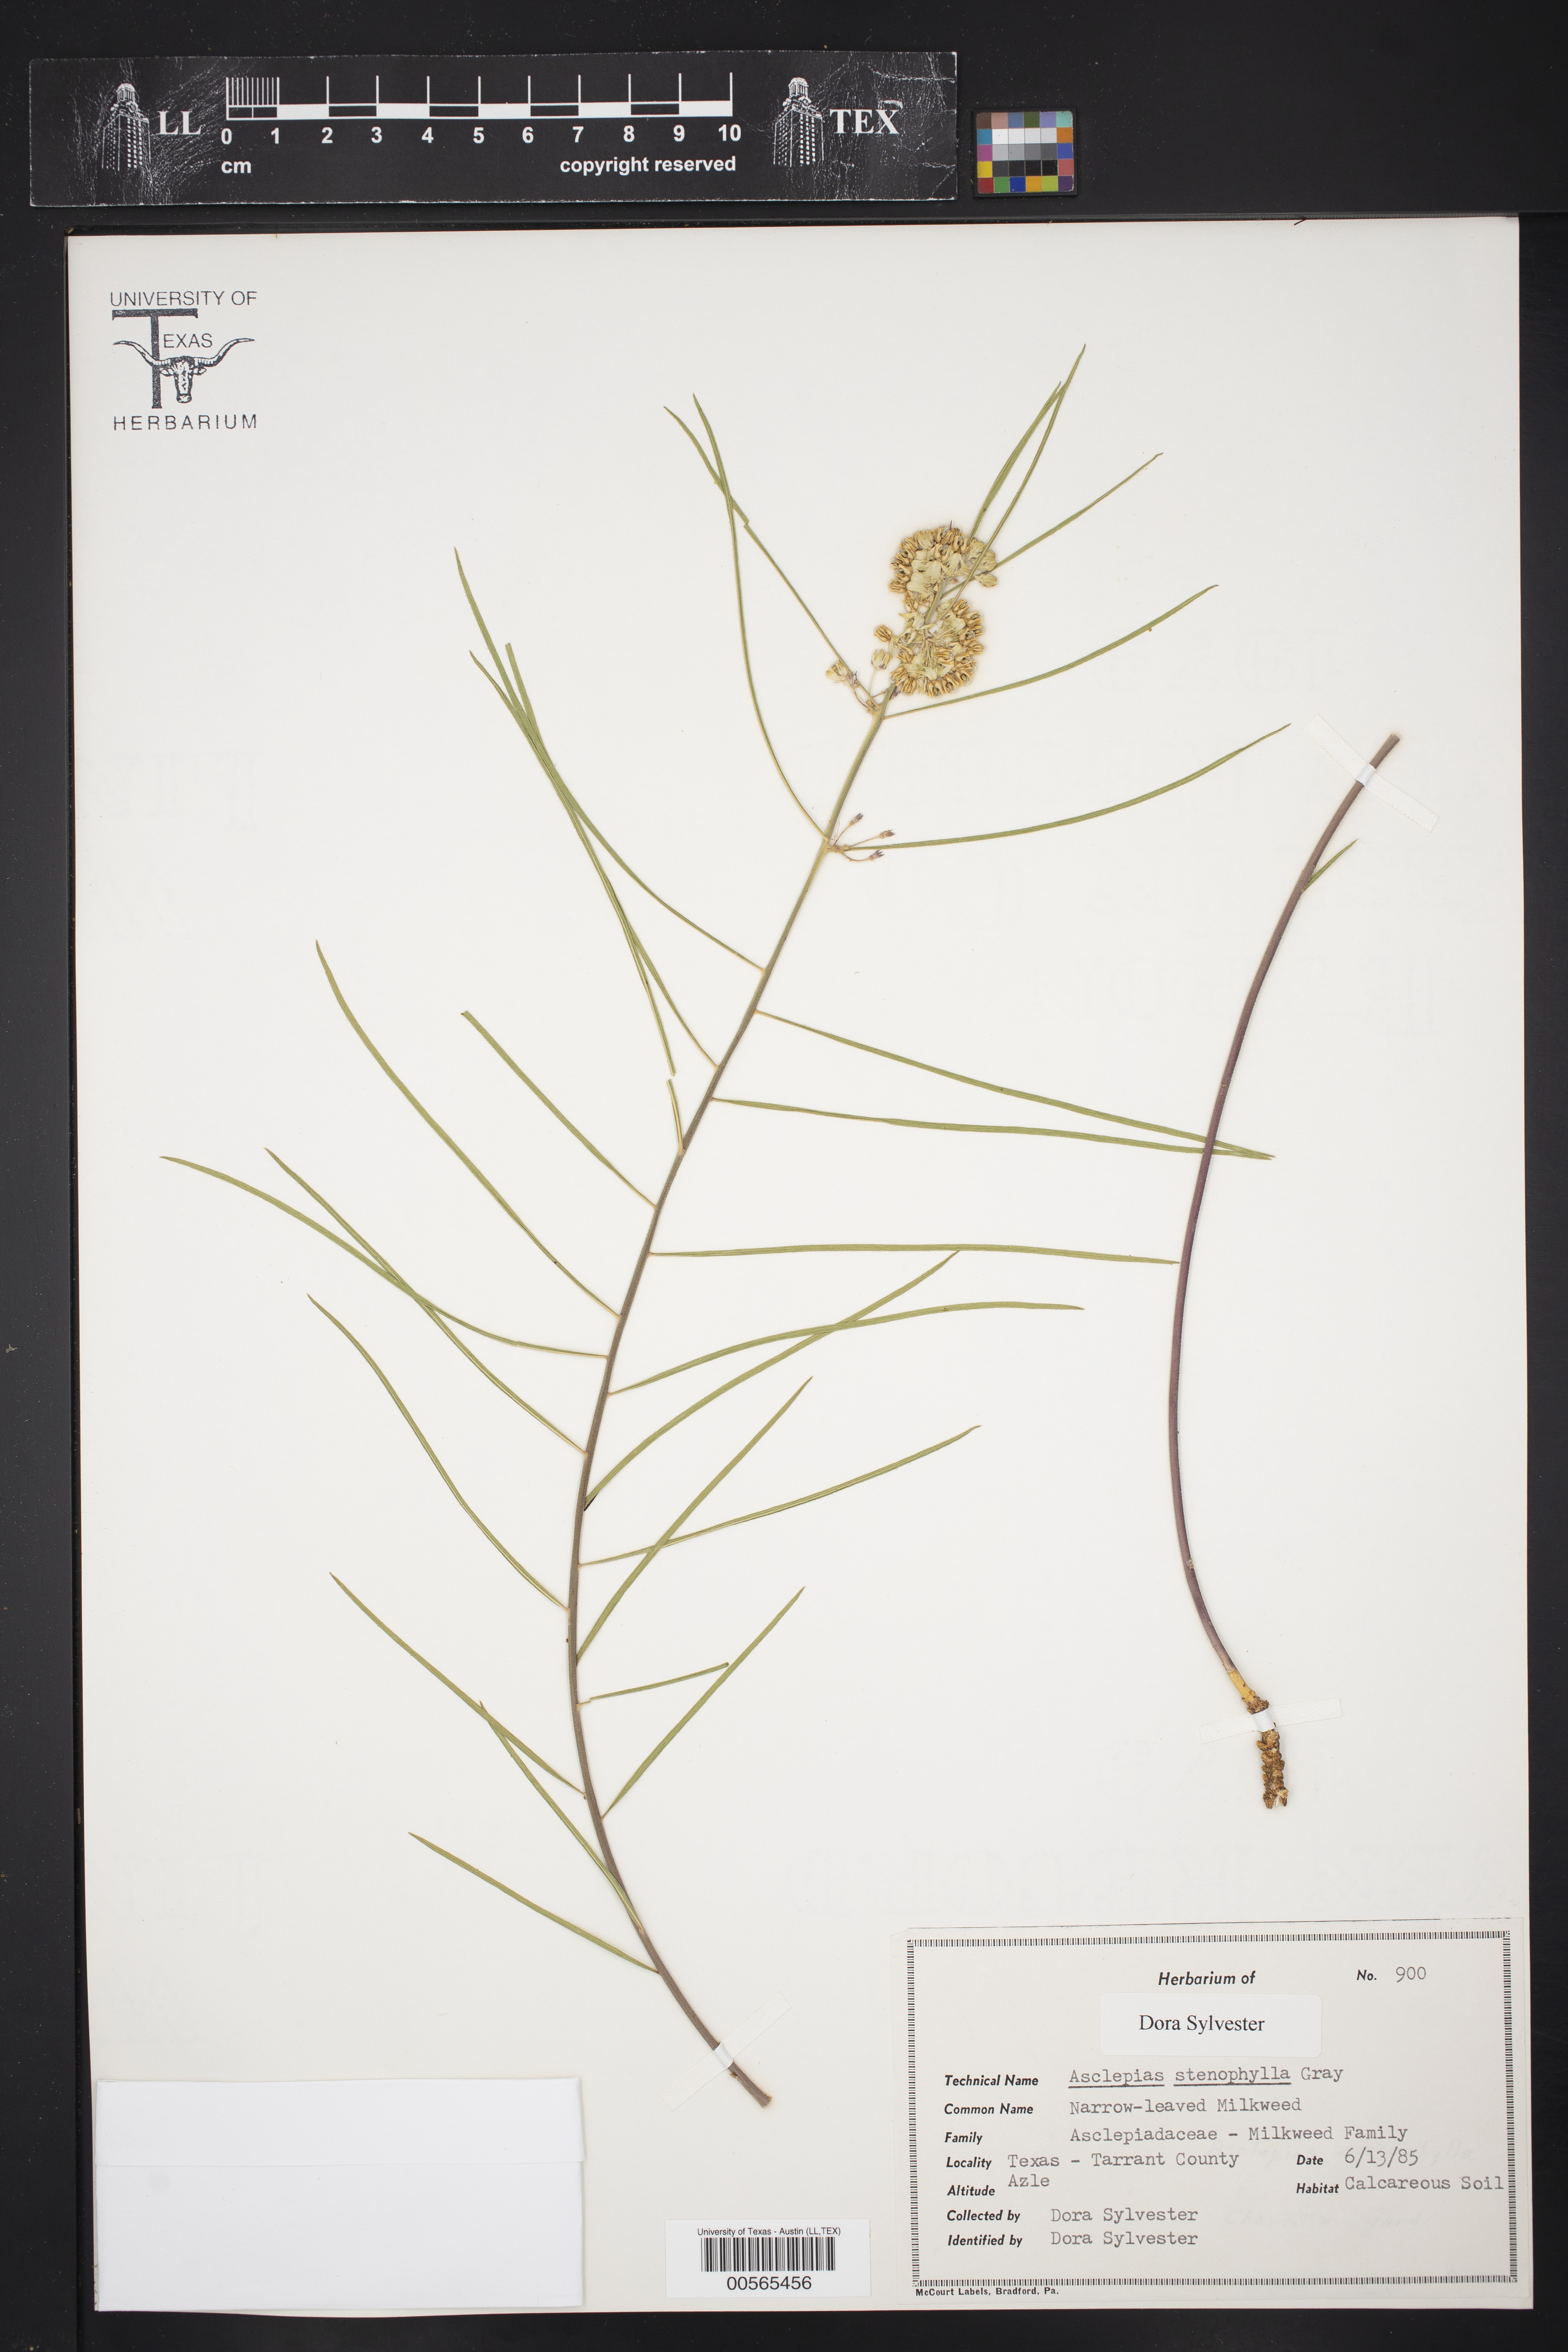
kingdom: Plantae
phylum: Tracheophyta
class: Magnoliopsida
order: Gentianales
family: Apocynaceae
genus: Asclepias
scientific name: Asclepias stenophylla
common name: Narrow-leaf milkweed
